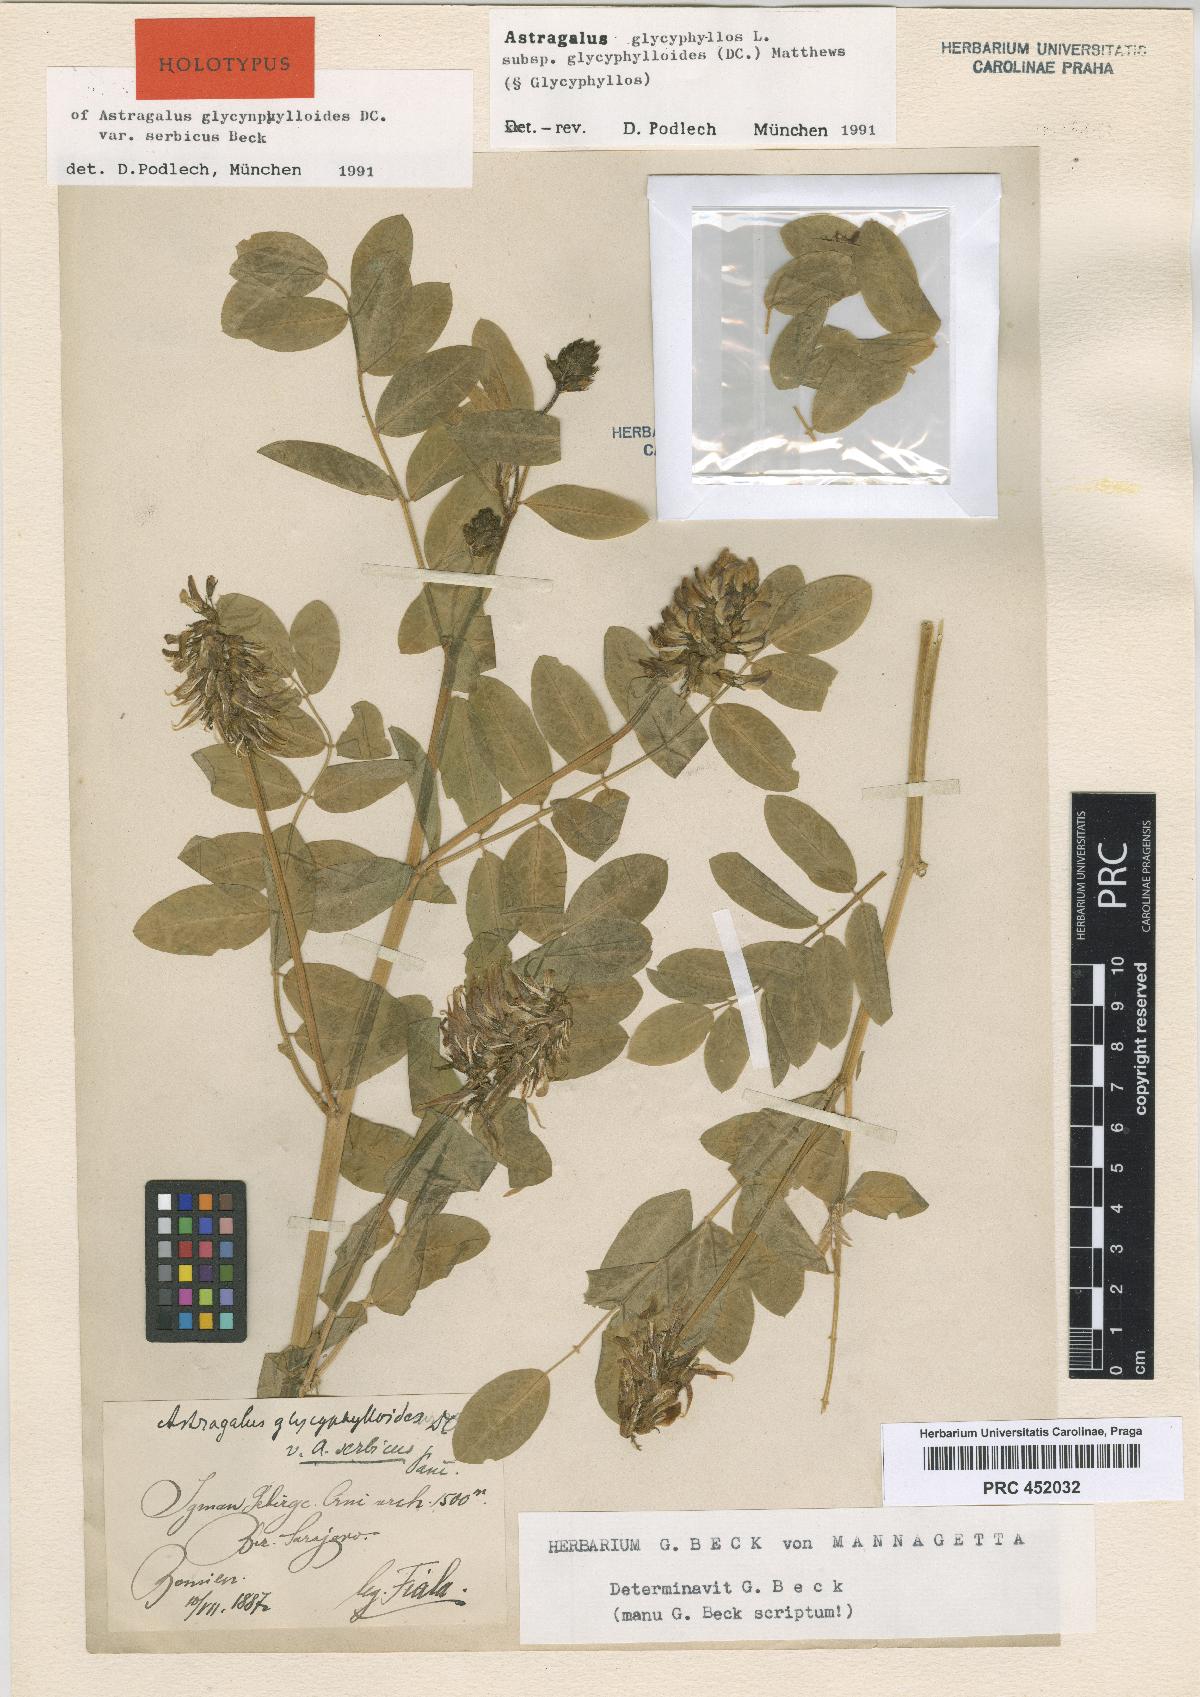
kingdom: Plantae
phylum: Tracheophyta
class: Magnoliopsida
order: Fabales
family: Fabaceae
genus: Astragalus
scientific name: Astragalus glycyphylloides
